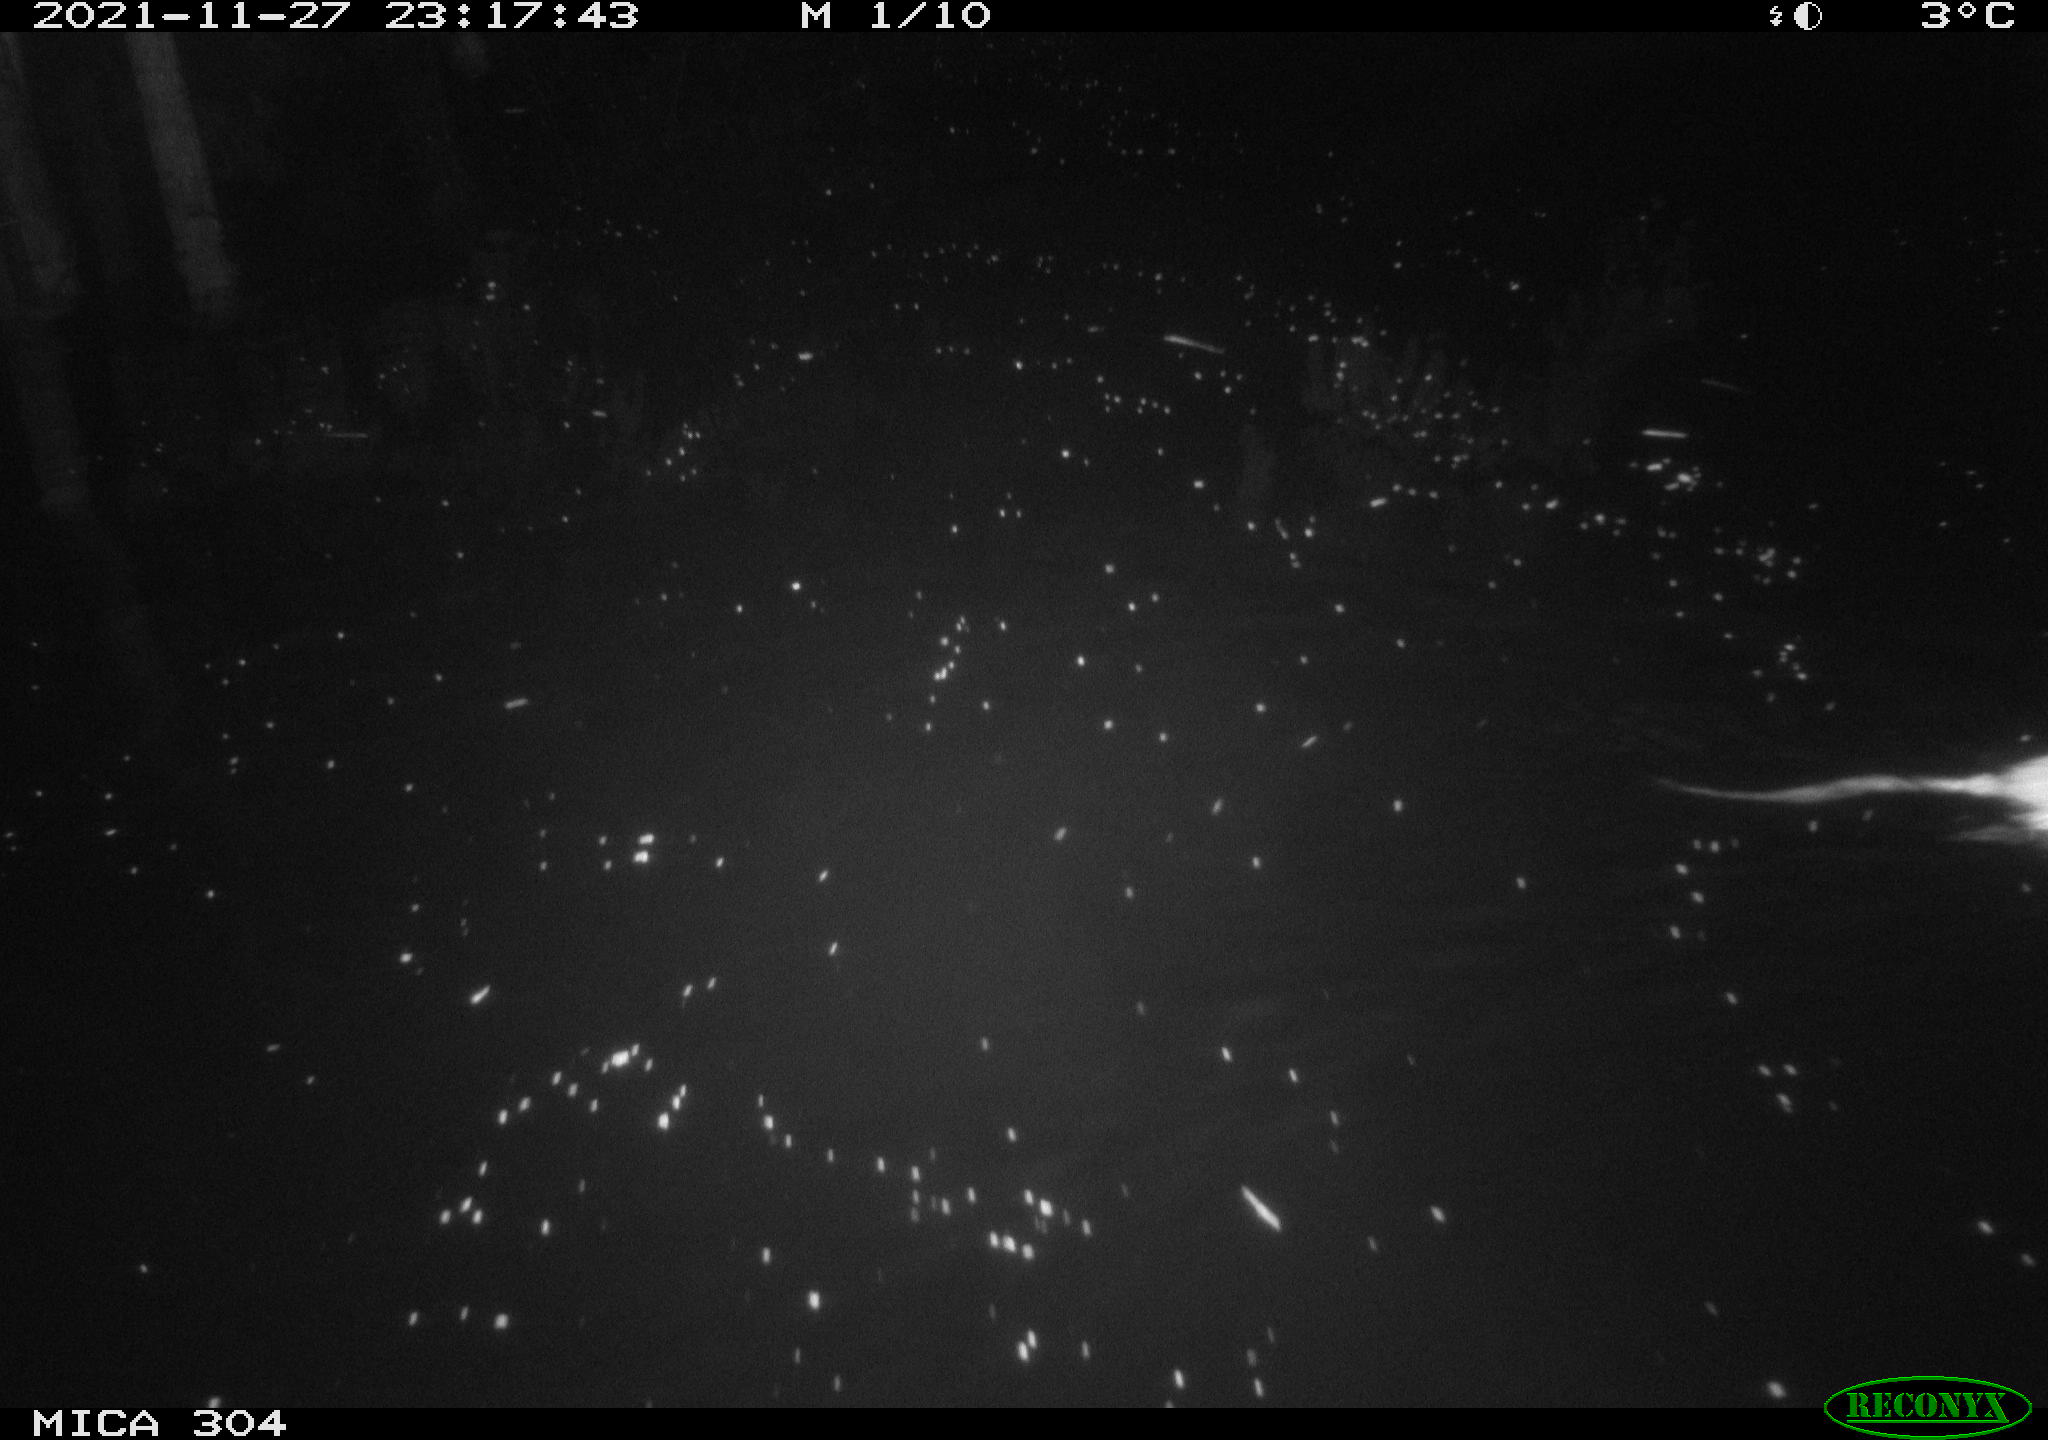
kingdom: Animalia
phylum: Chordata
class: Mammalia
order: Rodentia
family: Muridae
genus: Rattus
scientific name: Rattus norvegicus
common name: Brown rat
